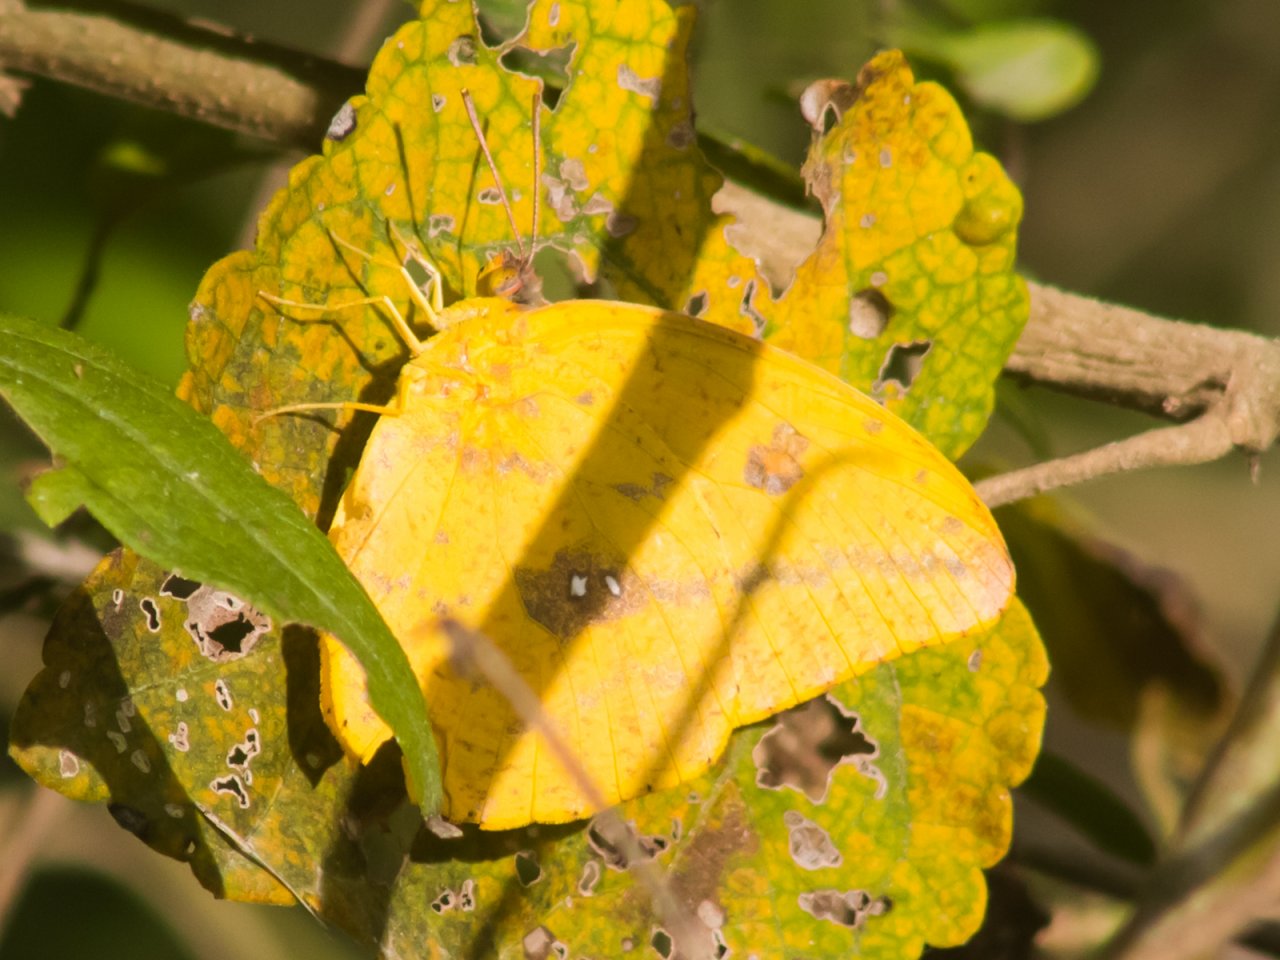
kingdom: Animalia
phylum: Arthropoda
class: Insecta
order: Lepidoptera
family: Pieridae
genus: Phoebis
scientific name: Phoebis agarithe
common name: Large Orange Sulphur
